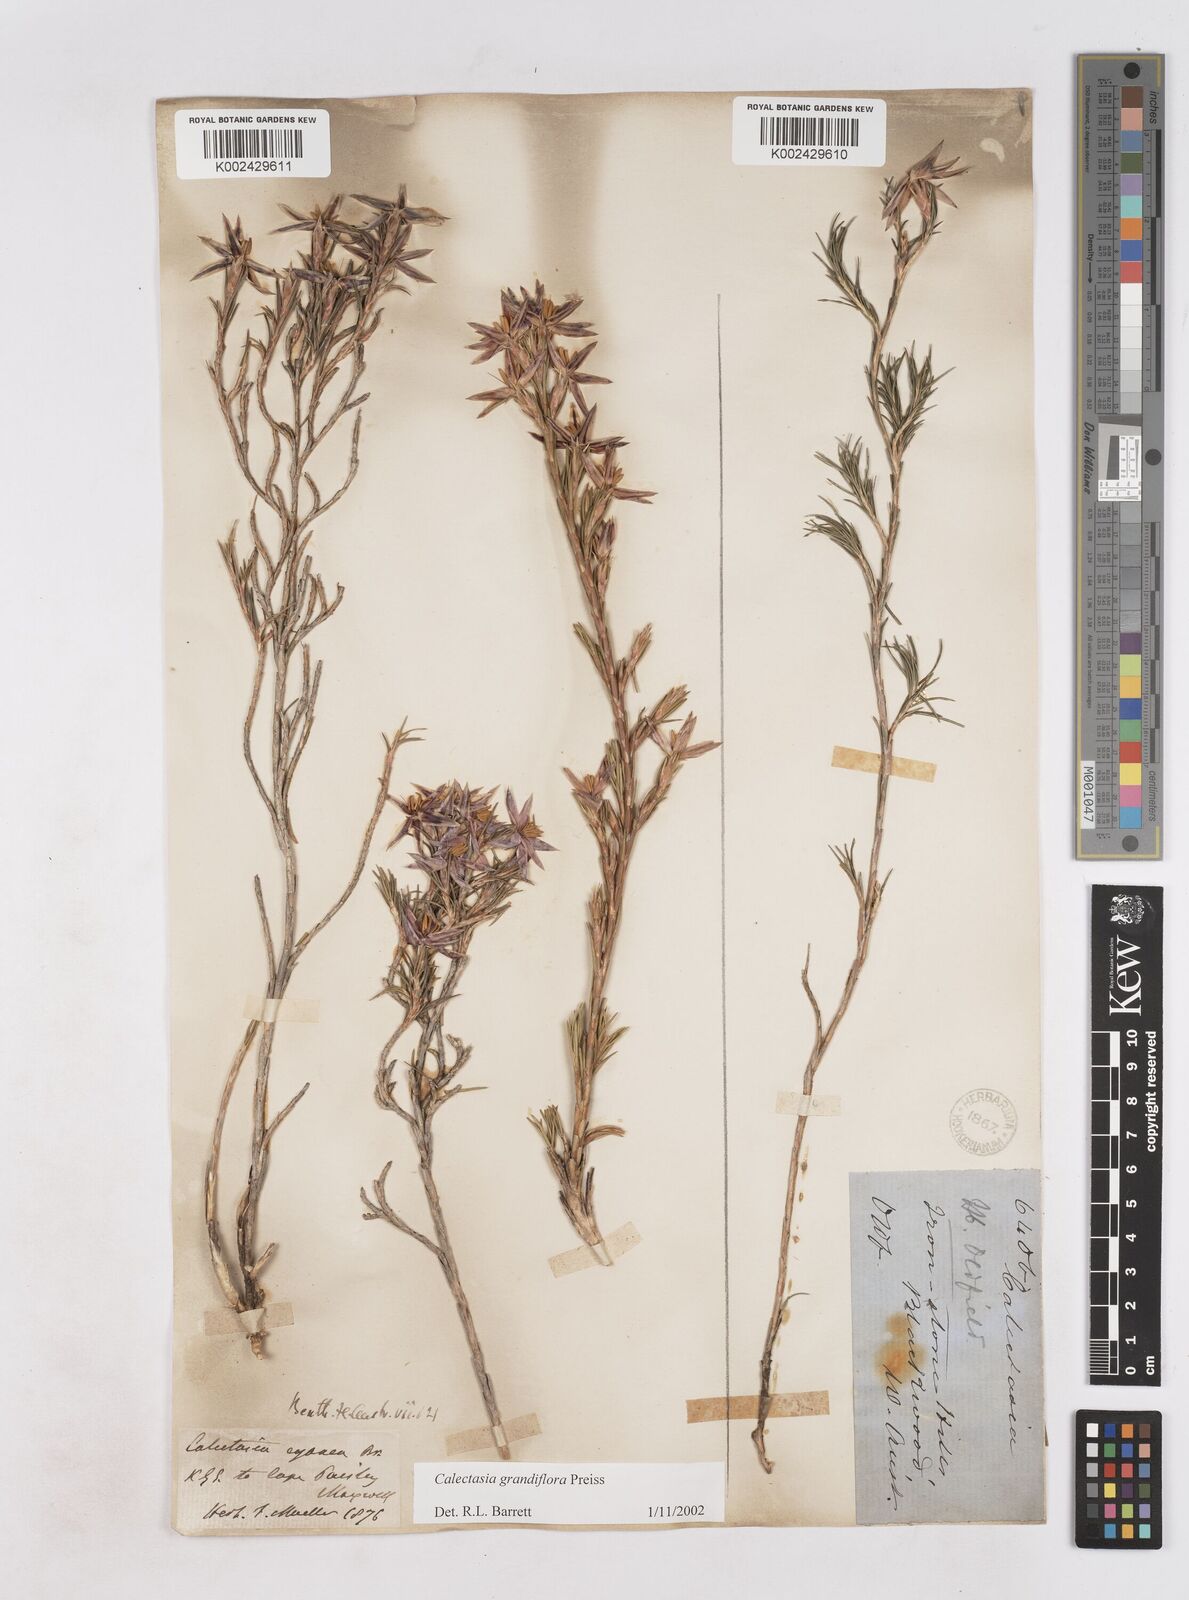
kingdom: Plantae
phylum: Tracheophyta
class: Liliopsida
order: Arecales
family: Dasypogonaceae
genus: Calectasia
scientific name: Calectasia grandiflora
